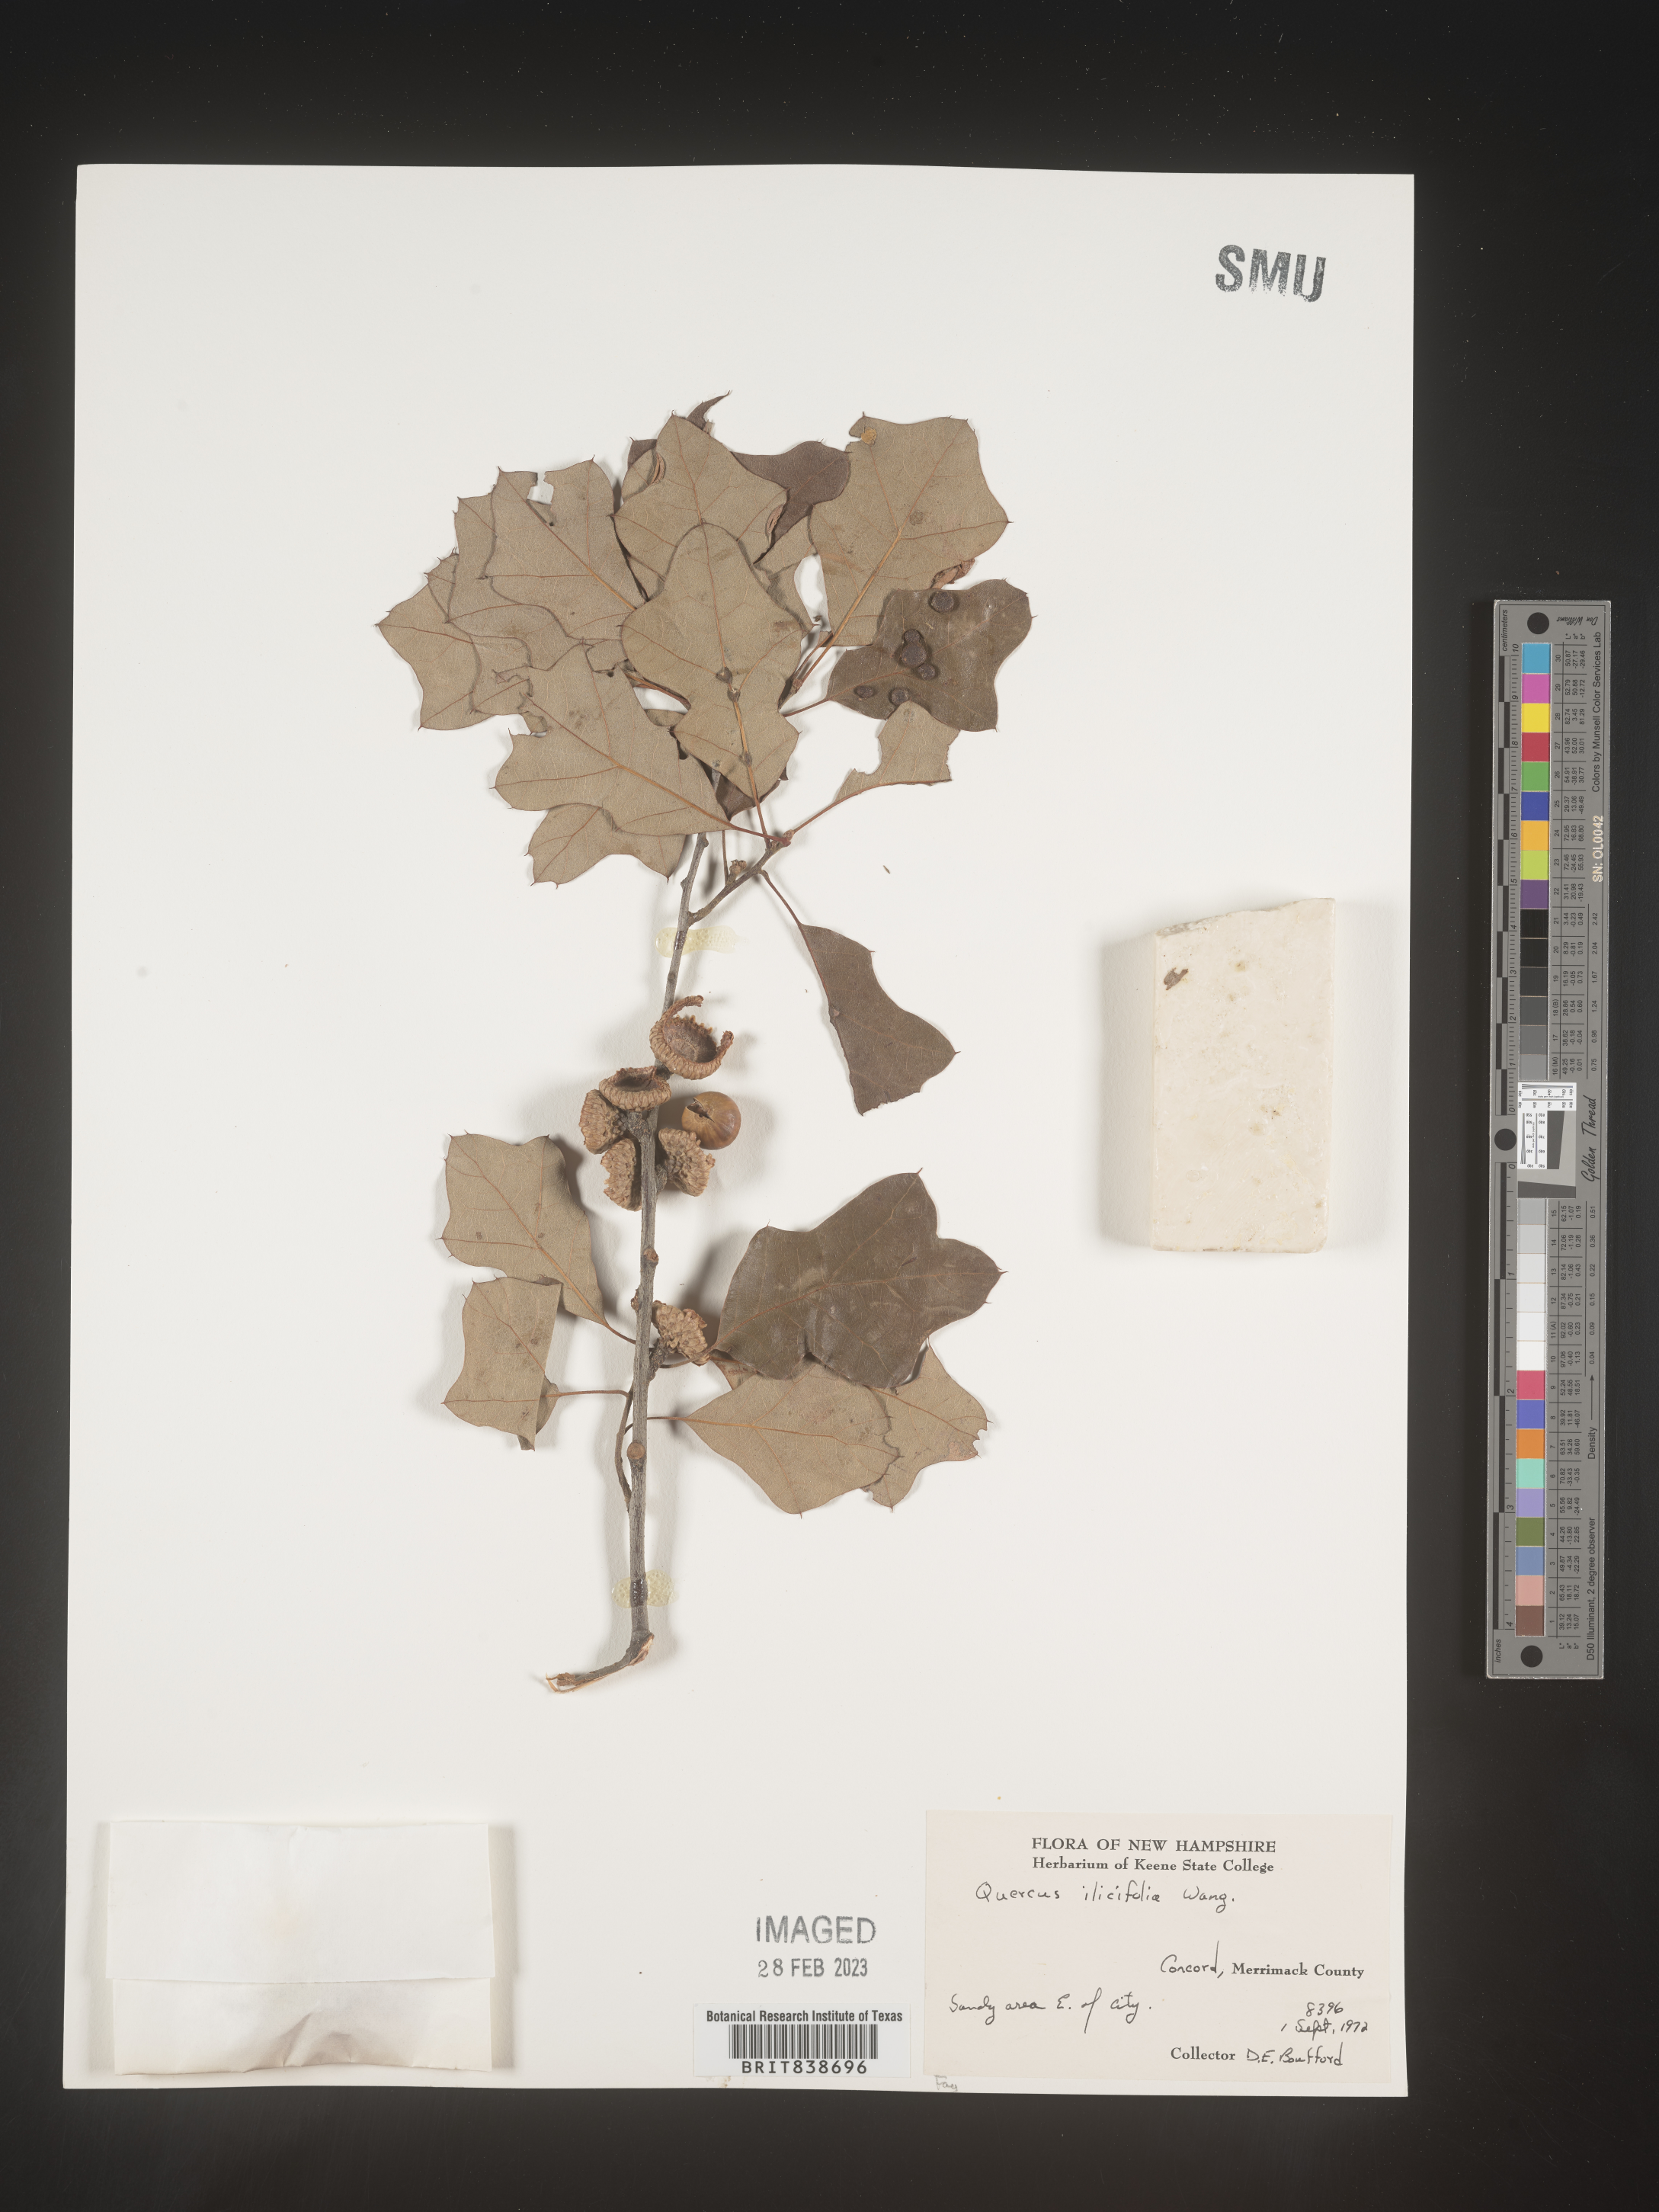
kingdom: Plantae
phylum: Tracheophyta
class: Magnoliopsida
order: Fagales
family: Fagaceae
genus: Quercus
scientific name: Quercus ilicifolia
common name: Bear oak
